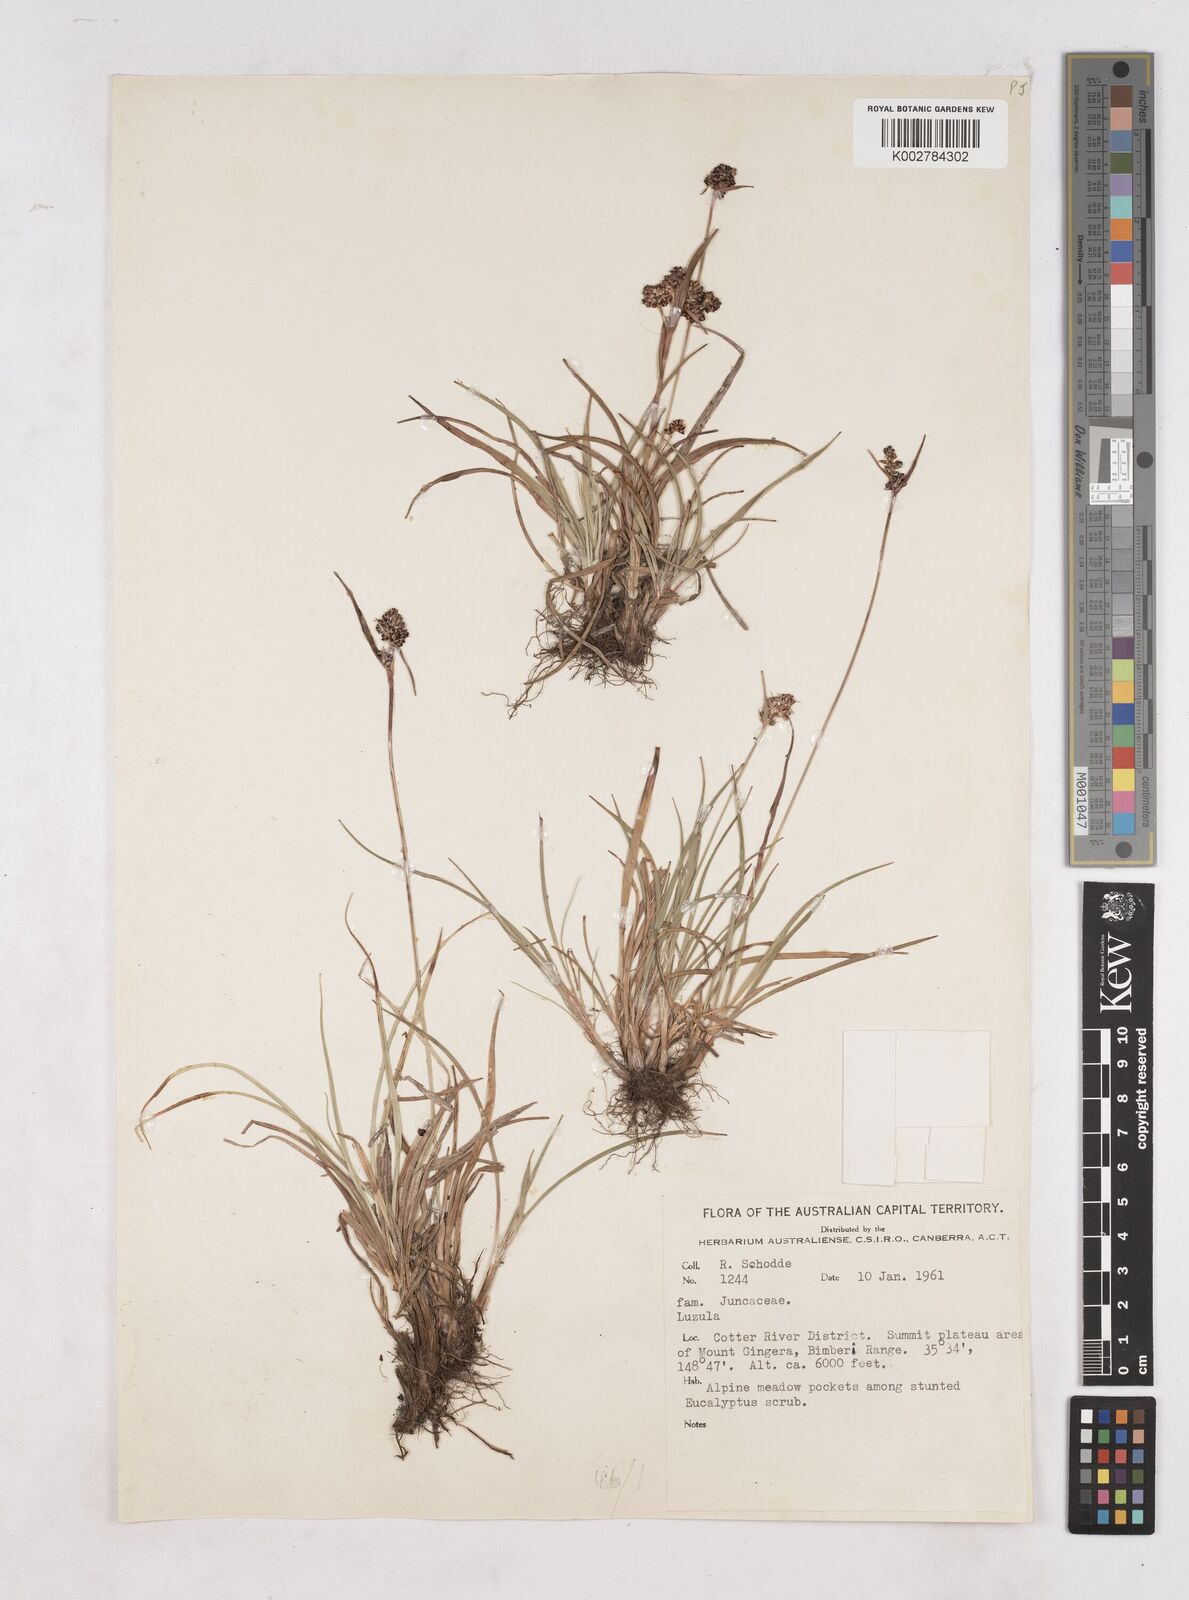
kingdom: Plantae
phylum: Tracheophyta
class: Liliopsida
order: Poales
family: Juncaceae
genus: Luzula
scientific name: Luzula
